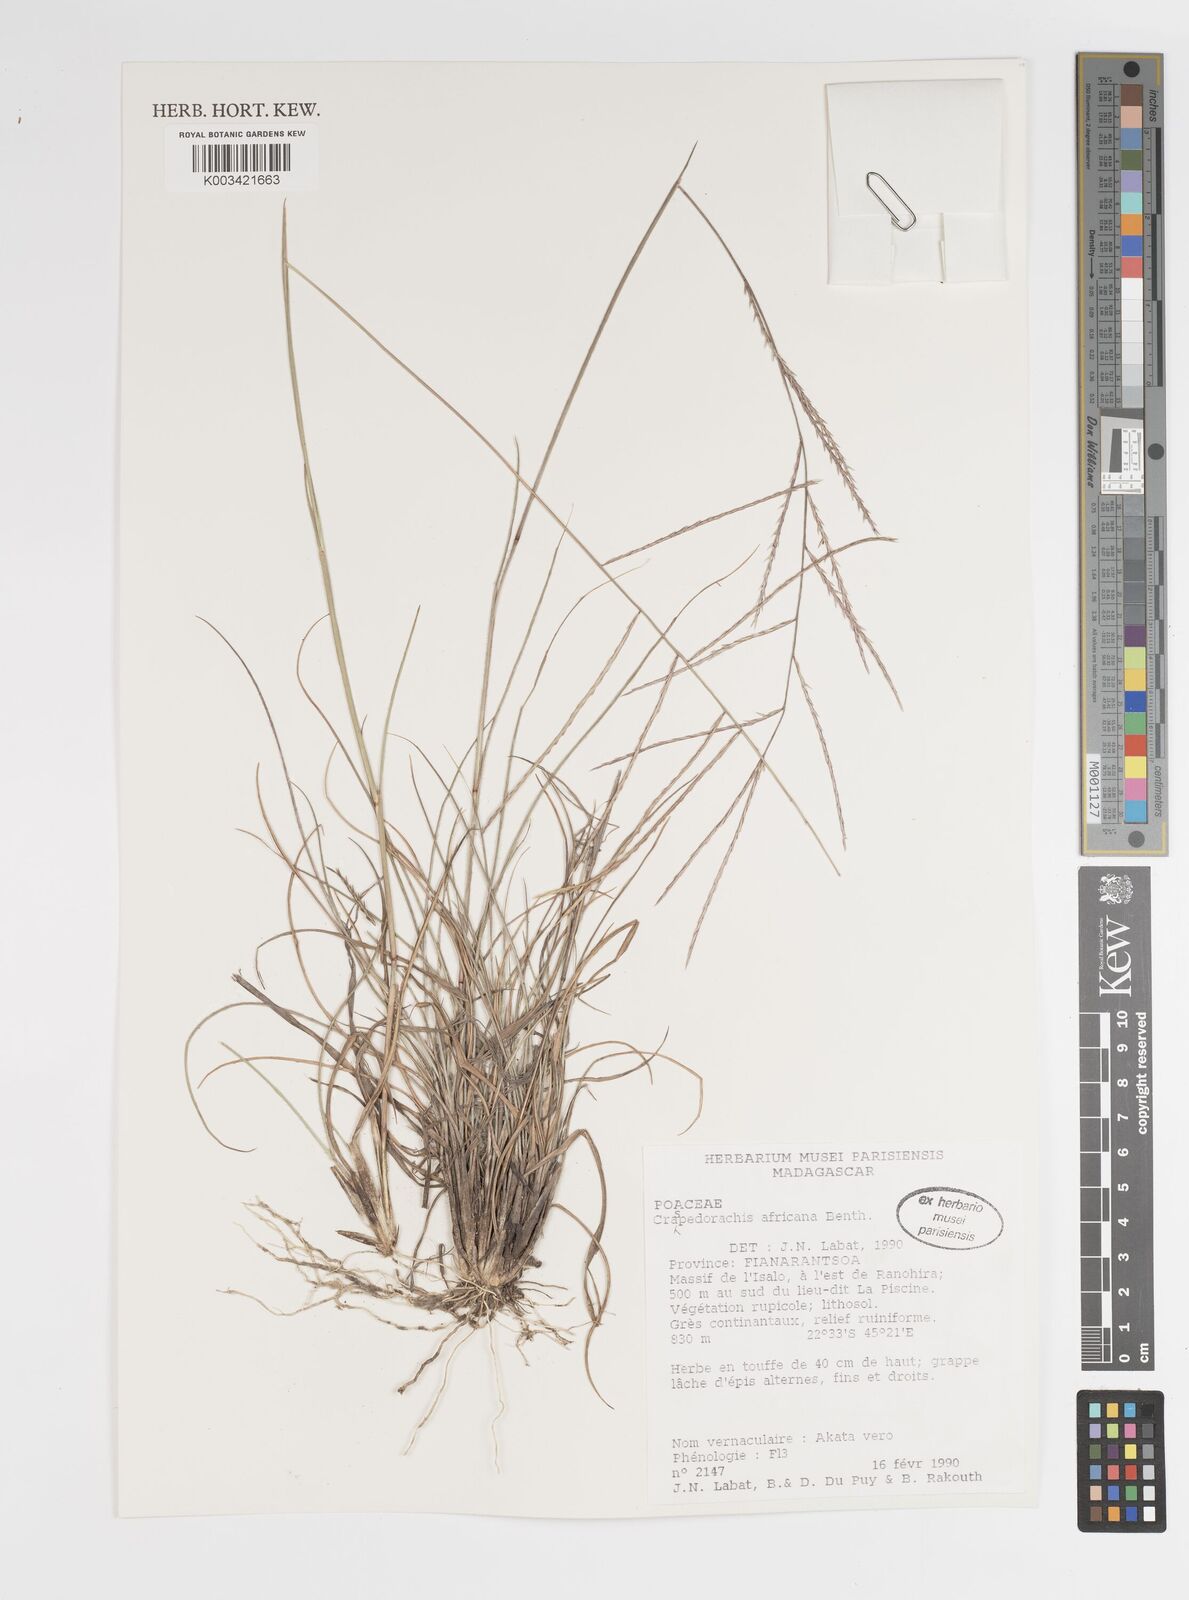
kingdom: Plantae
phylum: Tracheophyta
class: Liliopsida
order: Poales
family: Poaceae
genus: Craspedorhachis
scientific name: Craspedorhachis africana
